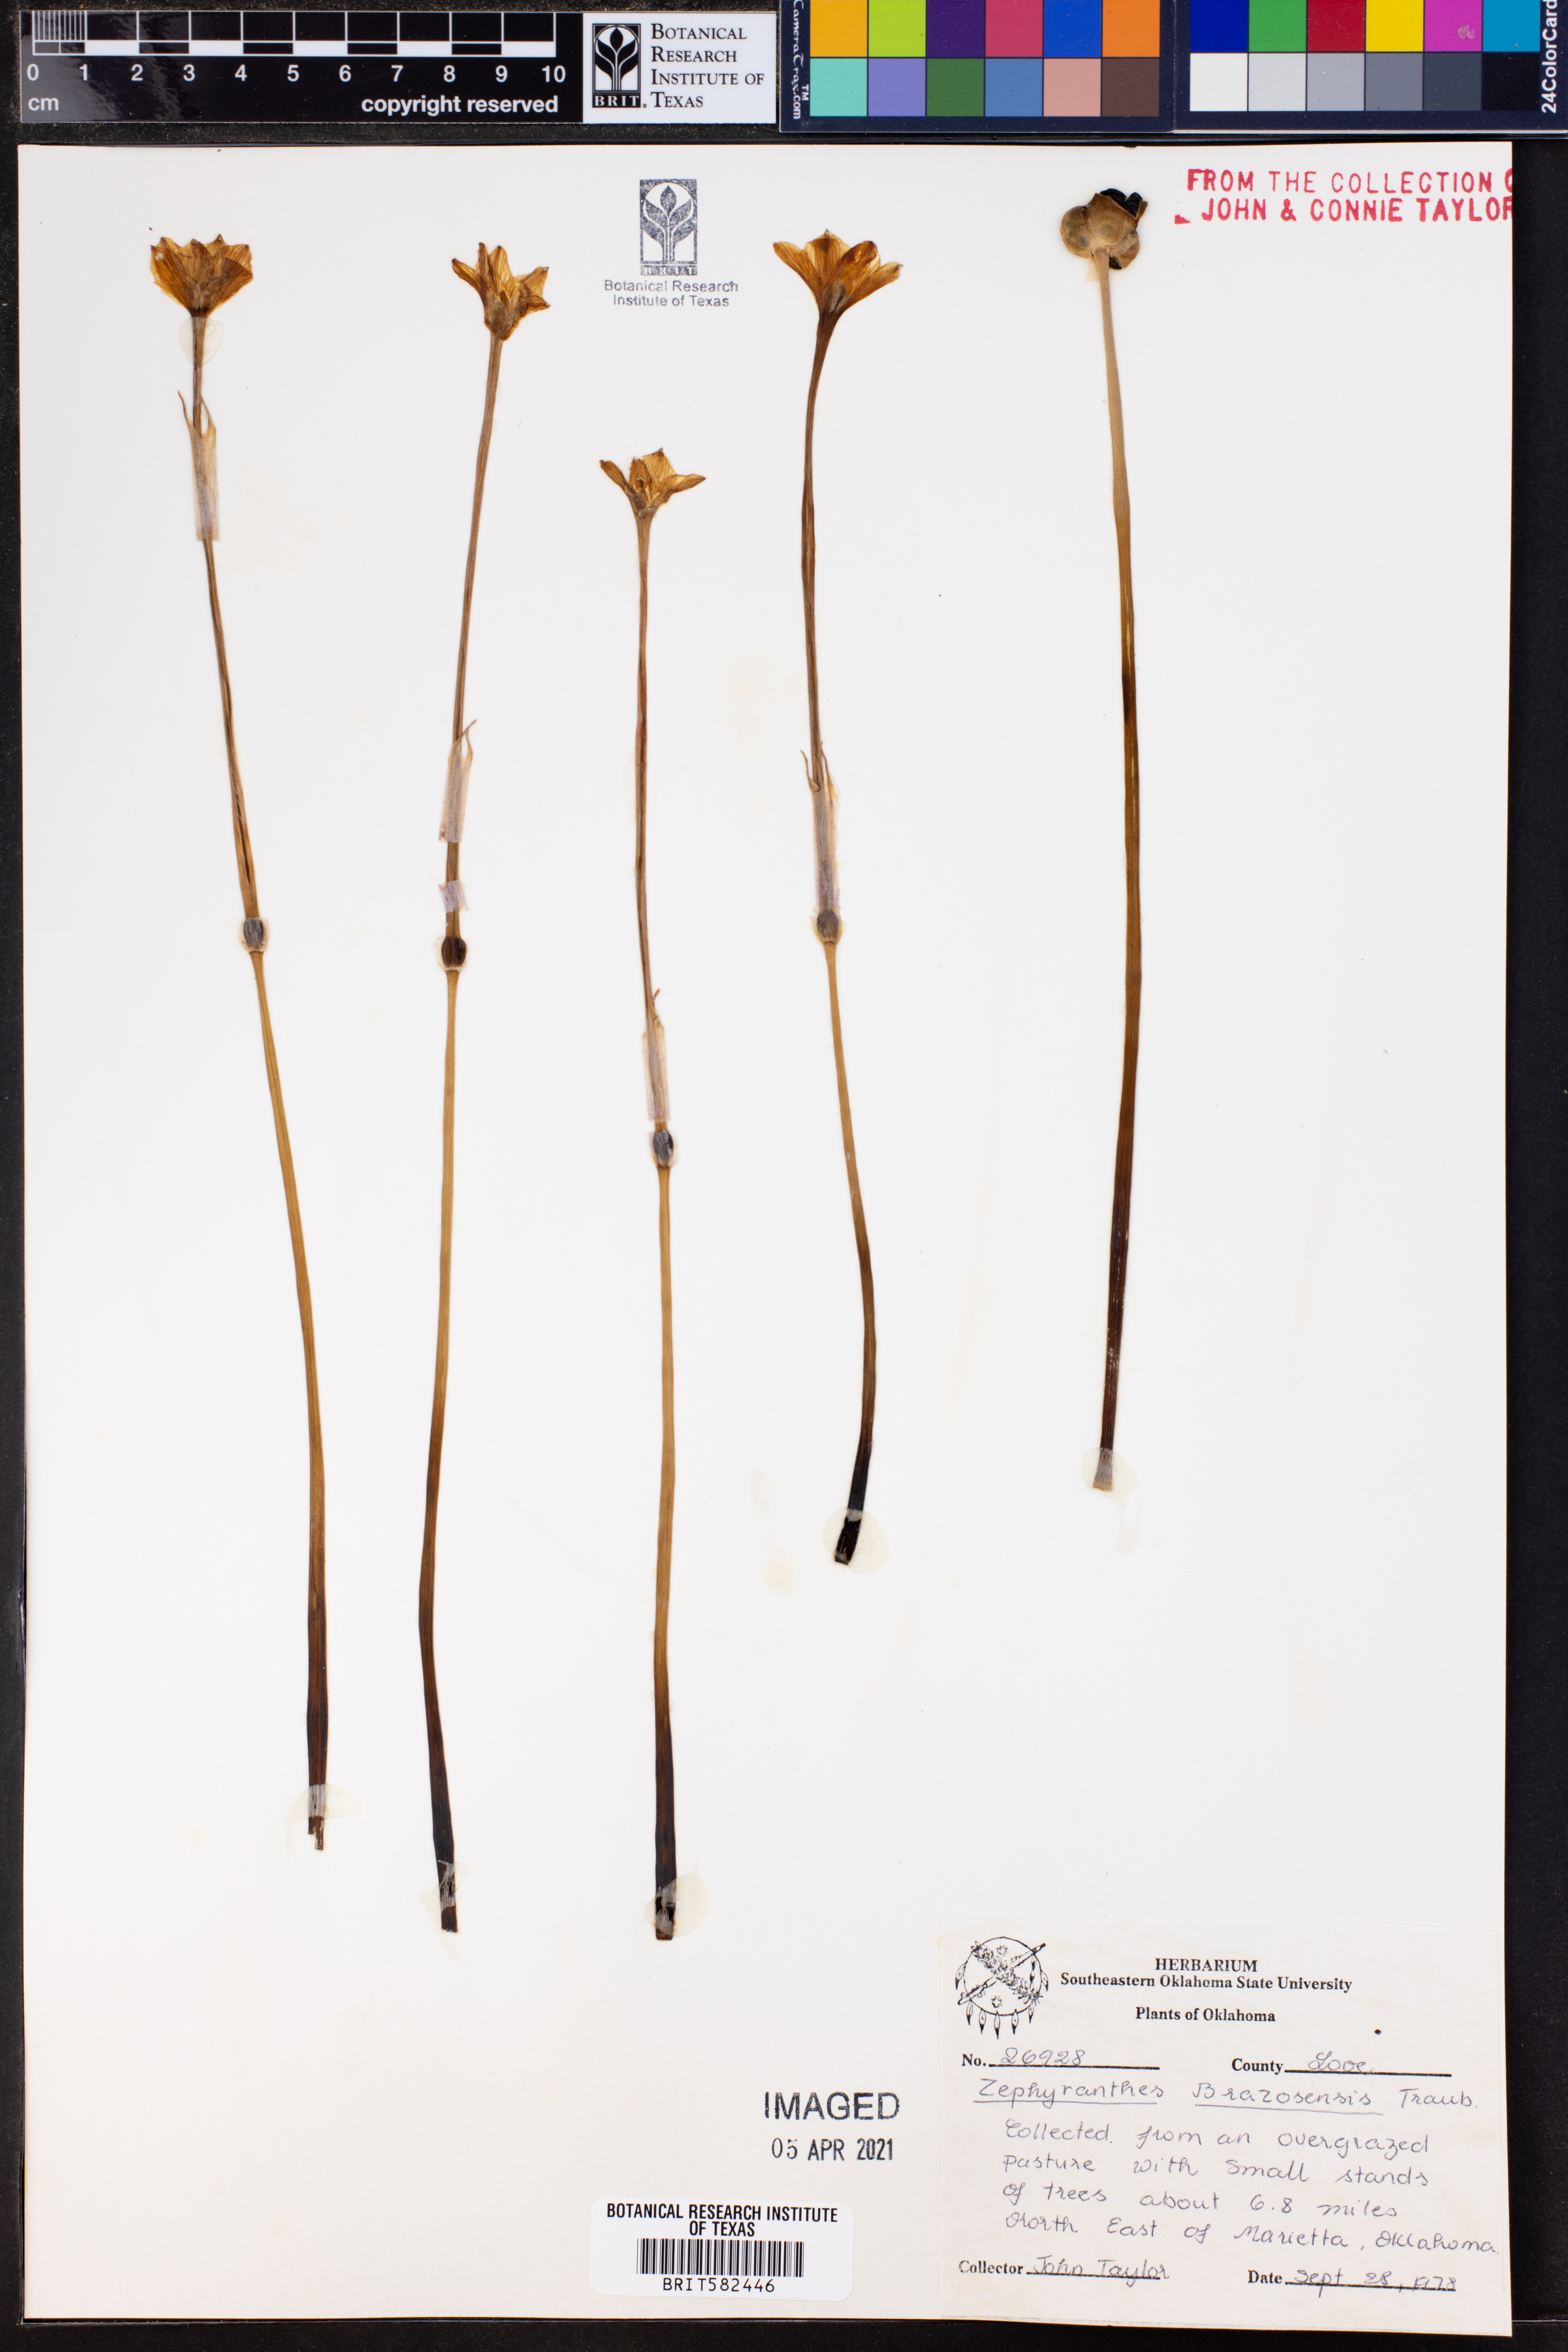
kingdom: Plantae
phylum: Tracheophyta
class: Liliopsida
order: Asparagales
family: Amaryllidaceae
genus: Zephyranthes
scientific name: Zephyranthes chlorosolen
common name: Evening rain-lily
